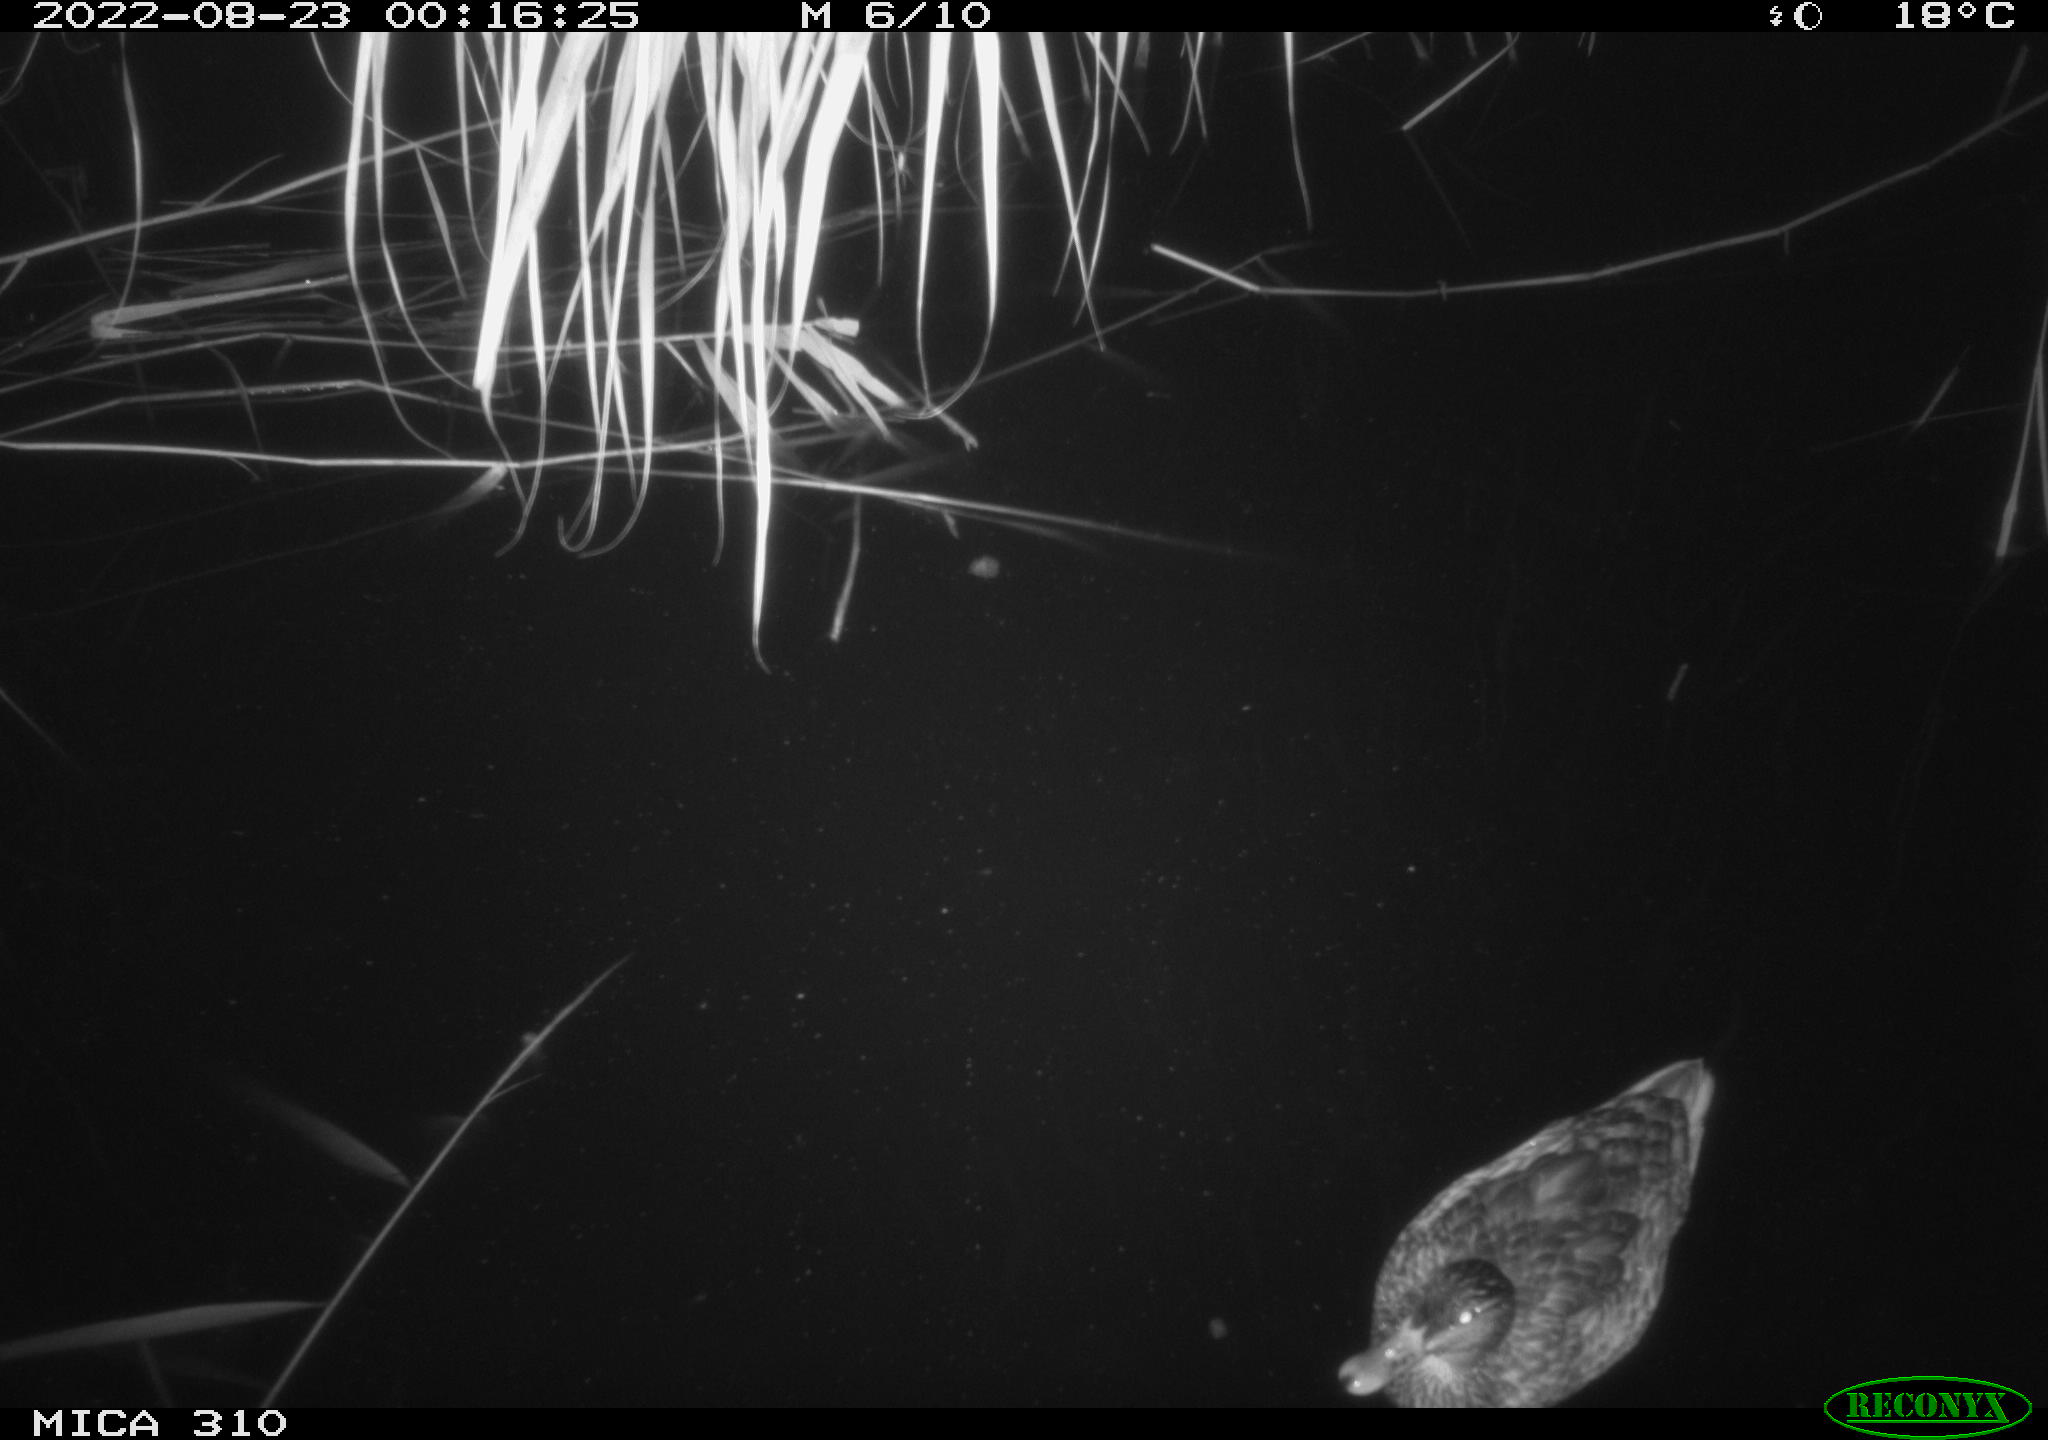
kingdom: Animalia
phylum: Chordata
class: Aves
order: Anseriformes
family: Anatidae
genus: Anas
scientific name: Anas platyrhynchos
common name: Mallard
